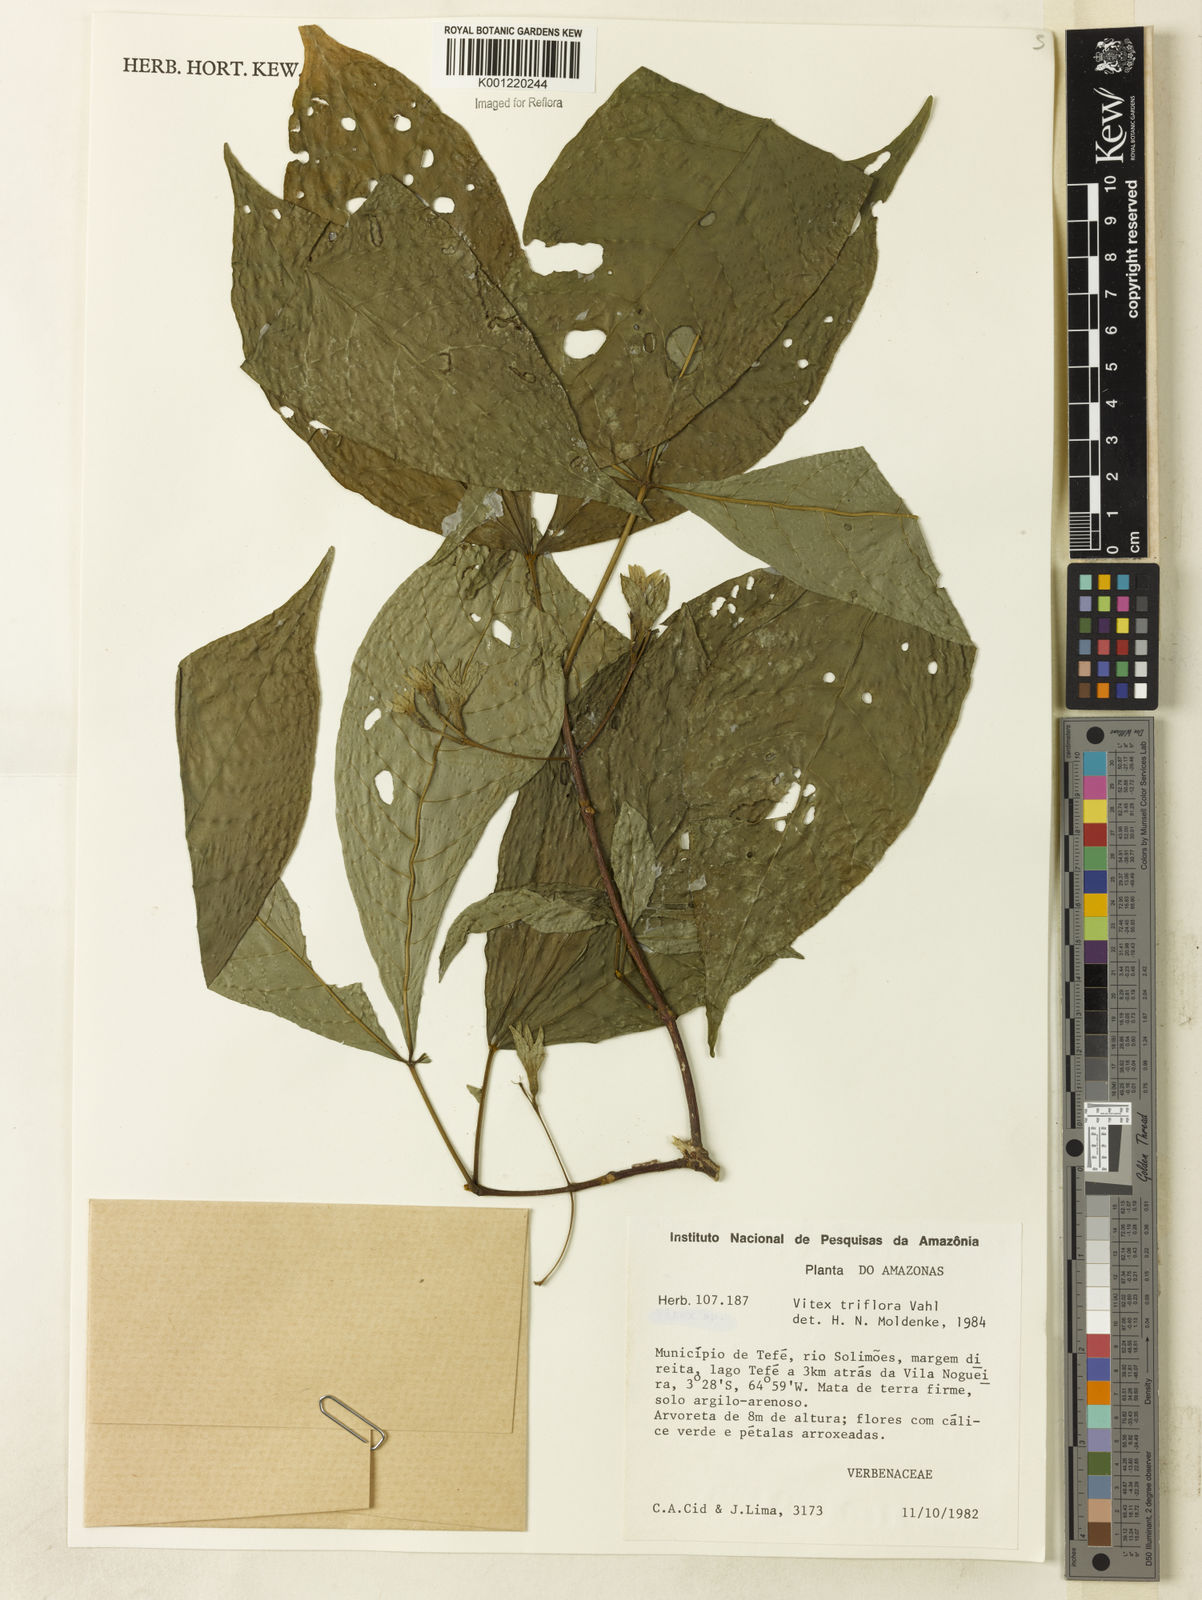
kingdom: Plantae
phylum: Tracheophyta
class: Magnoliopsida
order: Lamiales
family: Lamiaceae
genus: Vitex
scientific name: Vitex triflora
